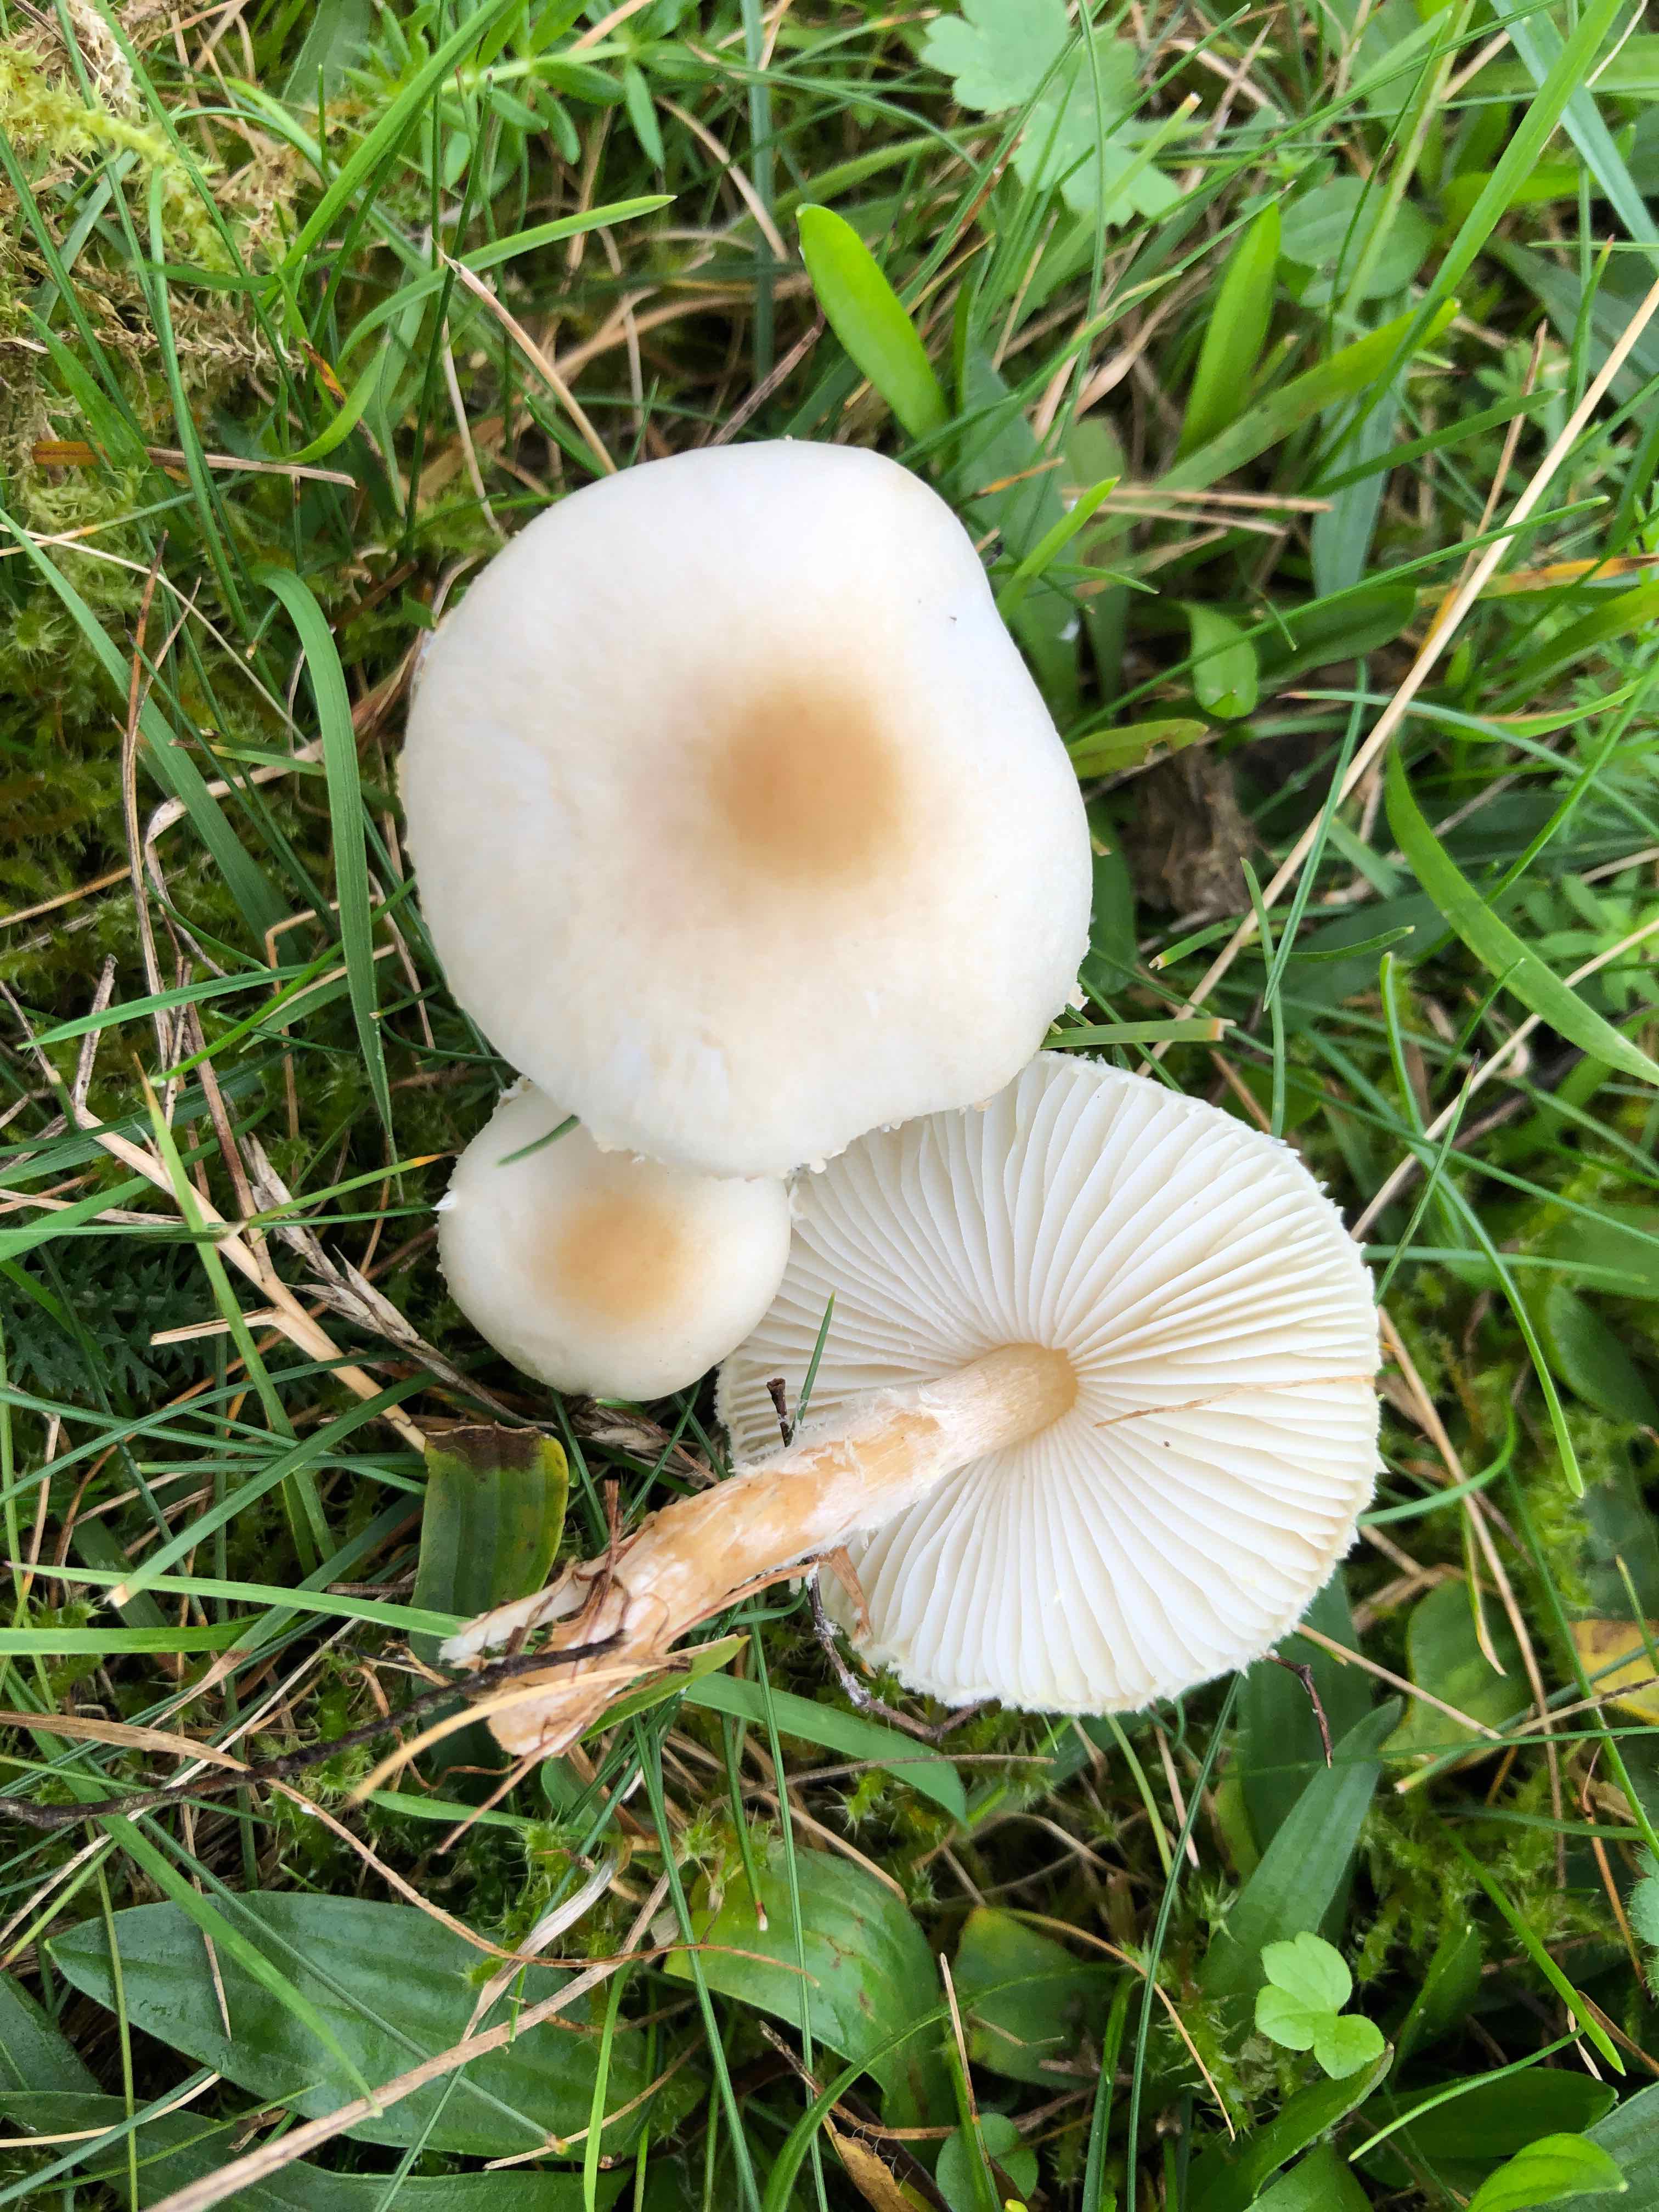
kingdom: Fungi
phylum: Basidiomycota
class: Agaricomycetes
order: Agaricales
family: Agaricaceae
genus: Lepiota
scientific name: Lepiota erminea
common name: hvid parasolhat
